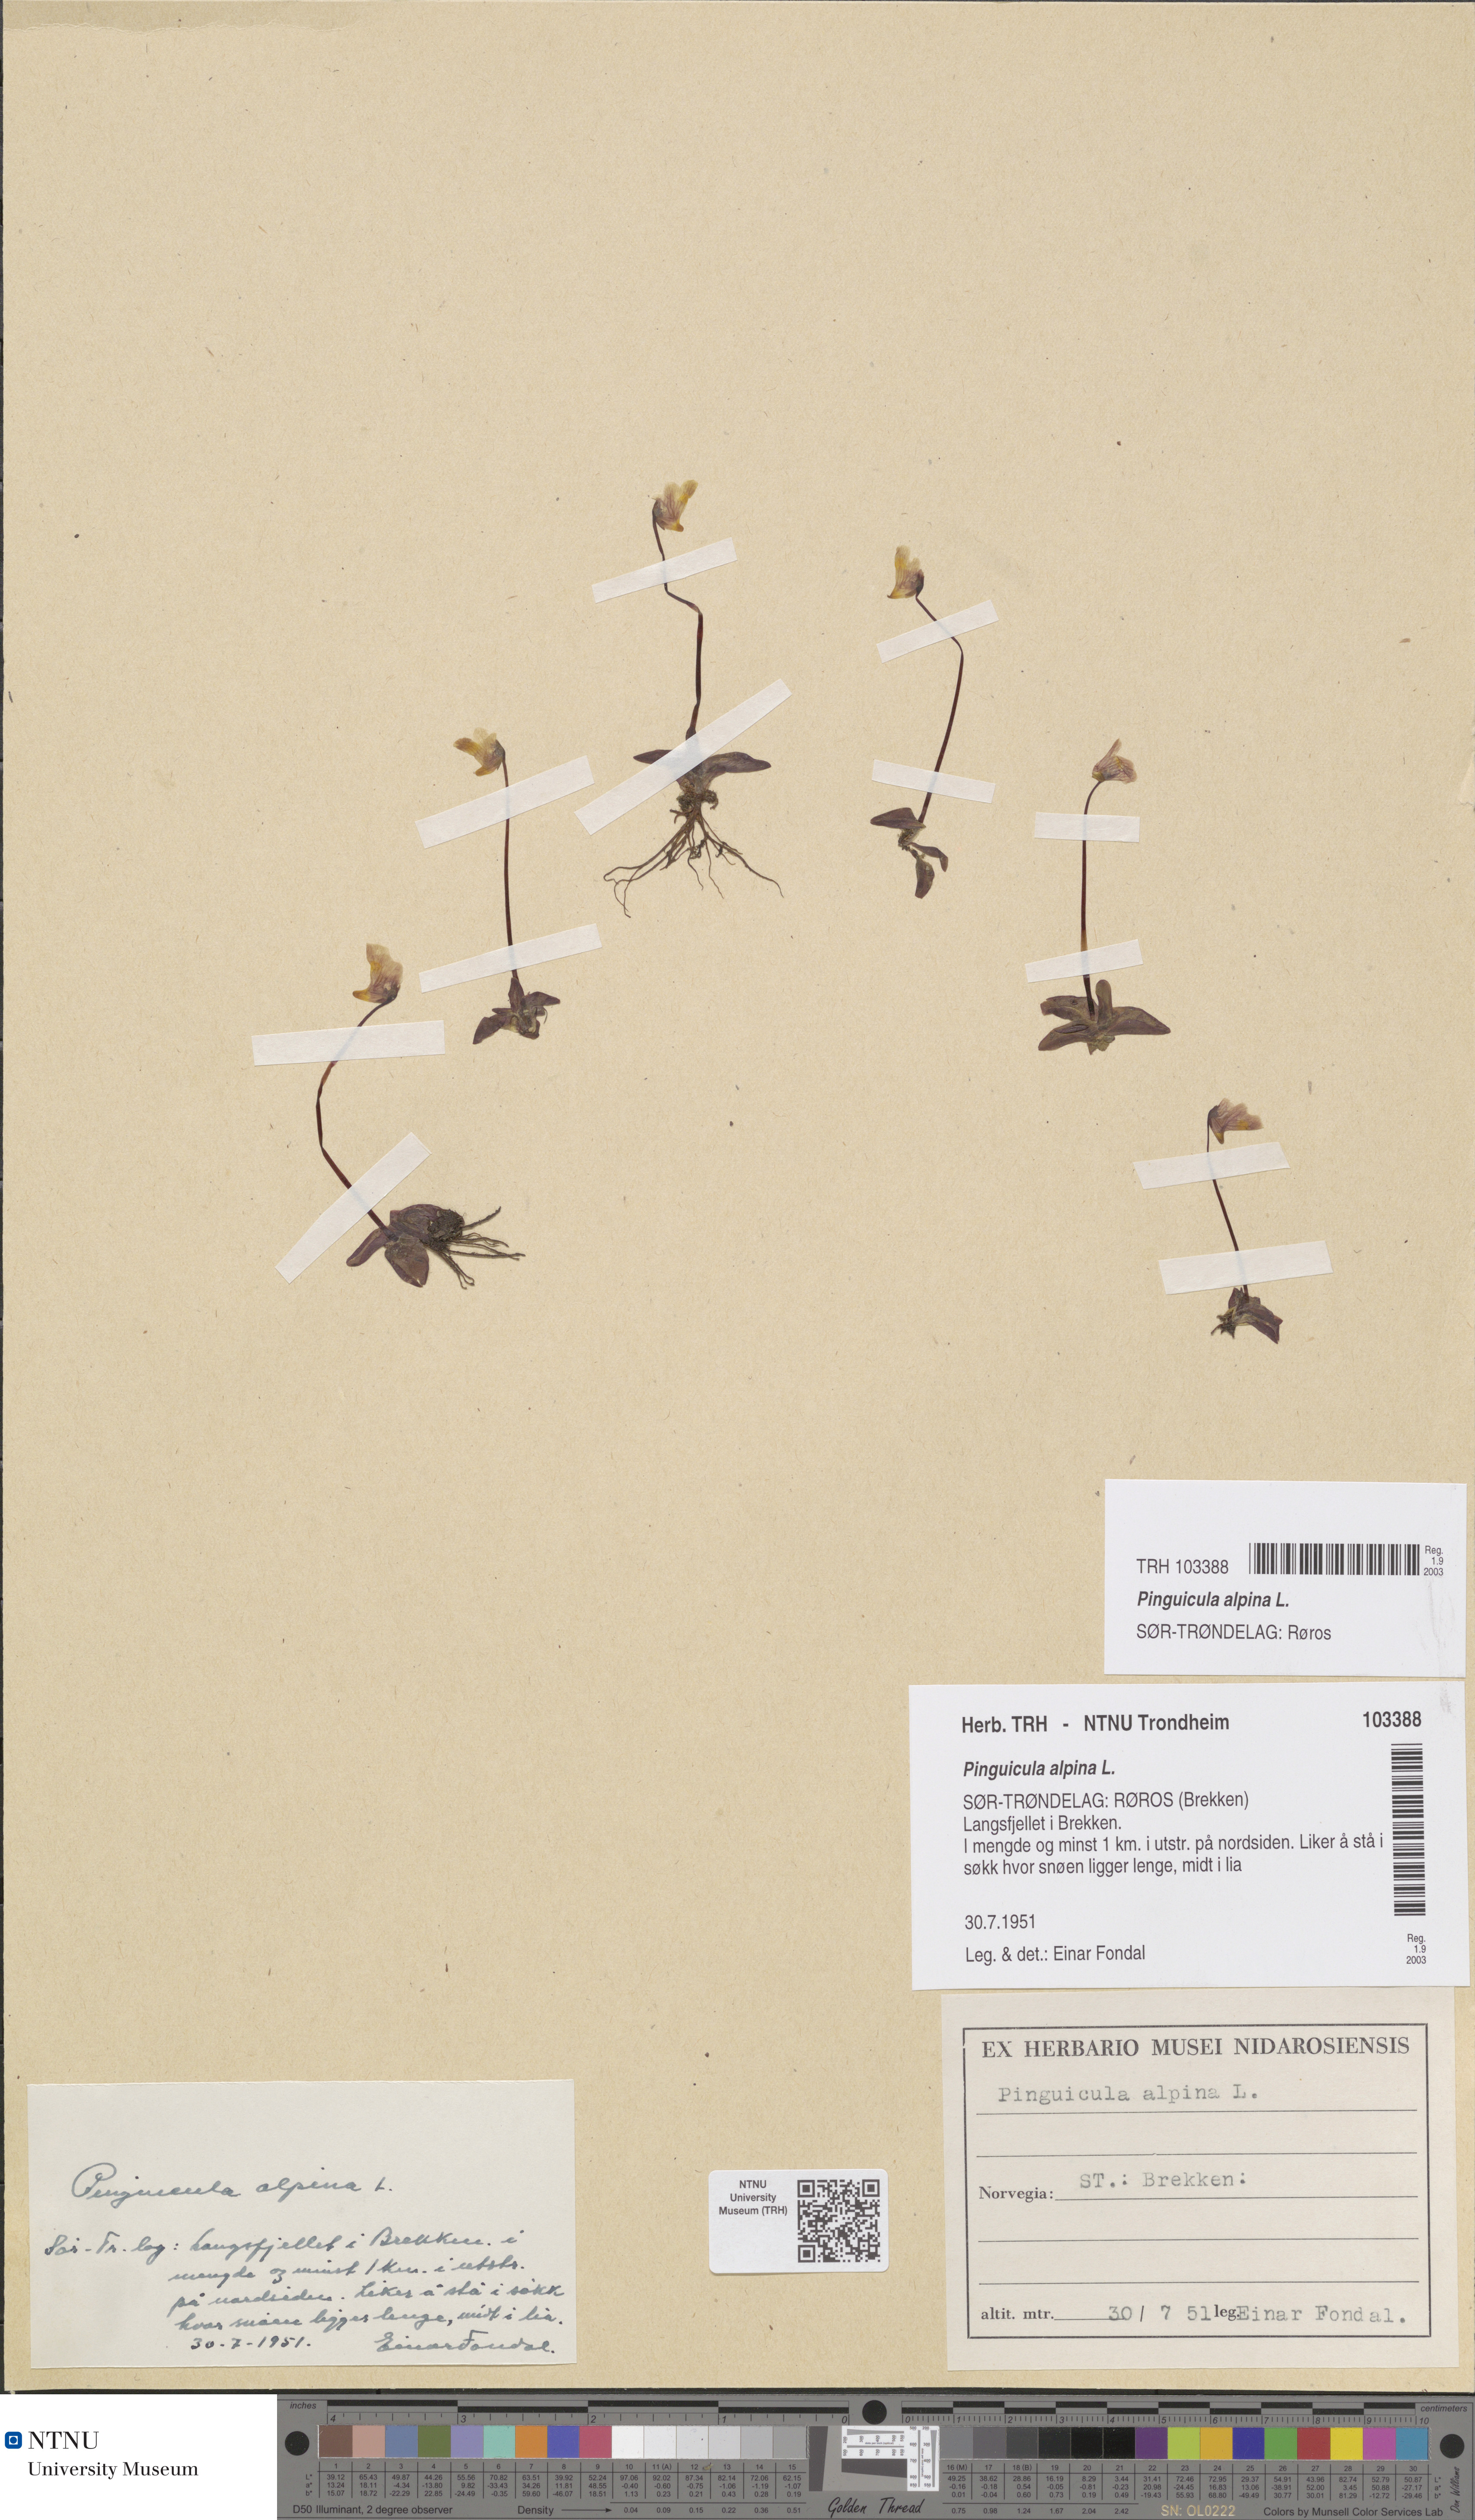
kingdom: Plantae
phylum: Tracheophyta
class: Magnoliopsida
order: Lamiales
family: Lentibulariaceae
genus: Pinguicula
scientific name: Pinguicula alpina
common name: Alpine butterwort
